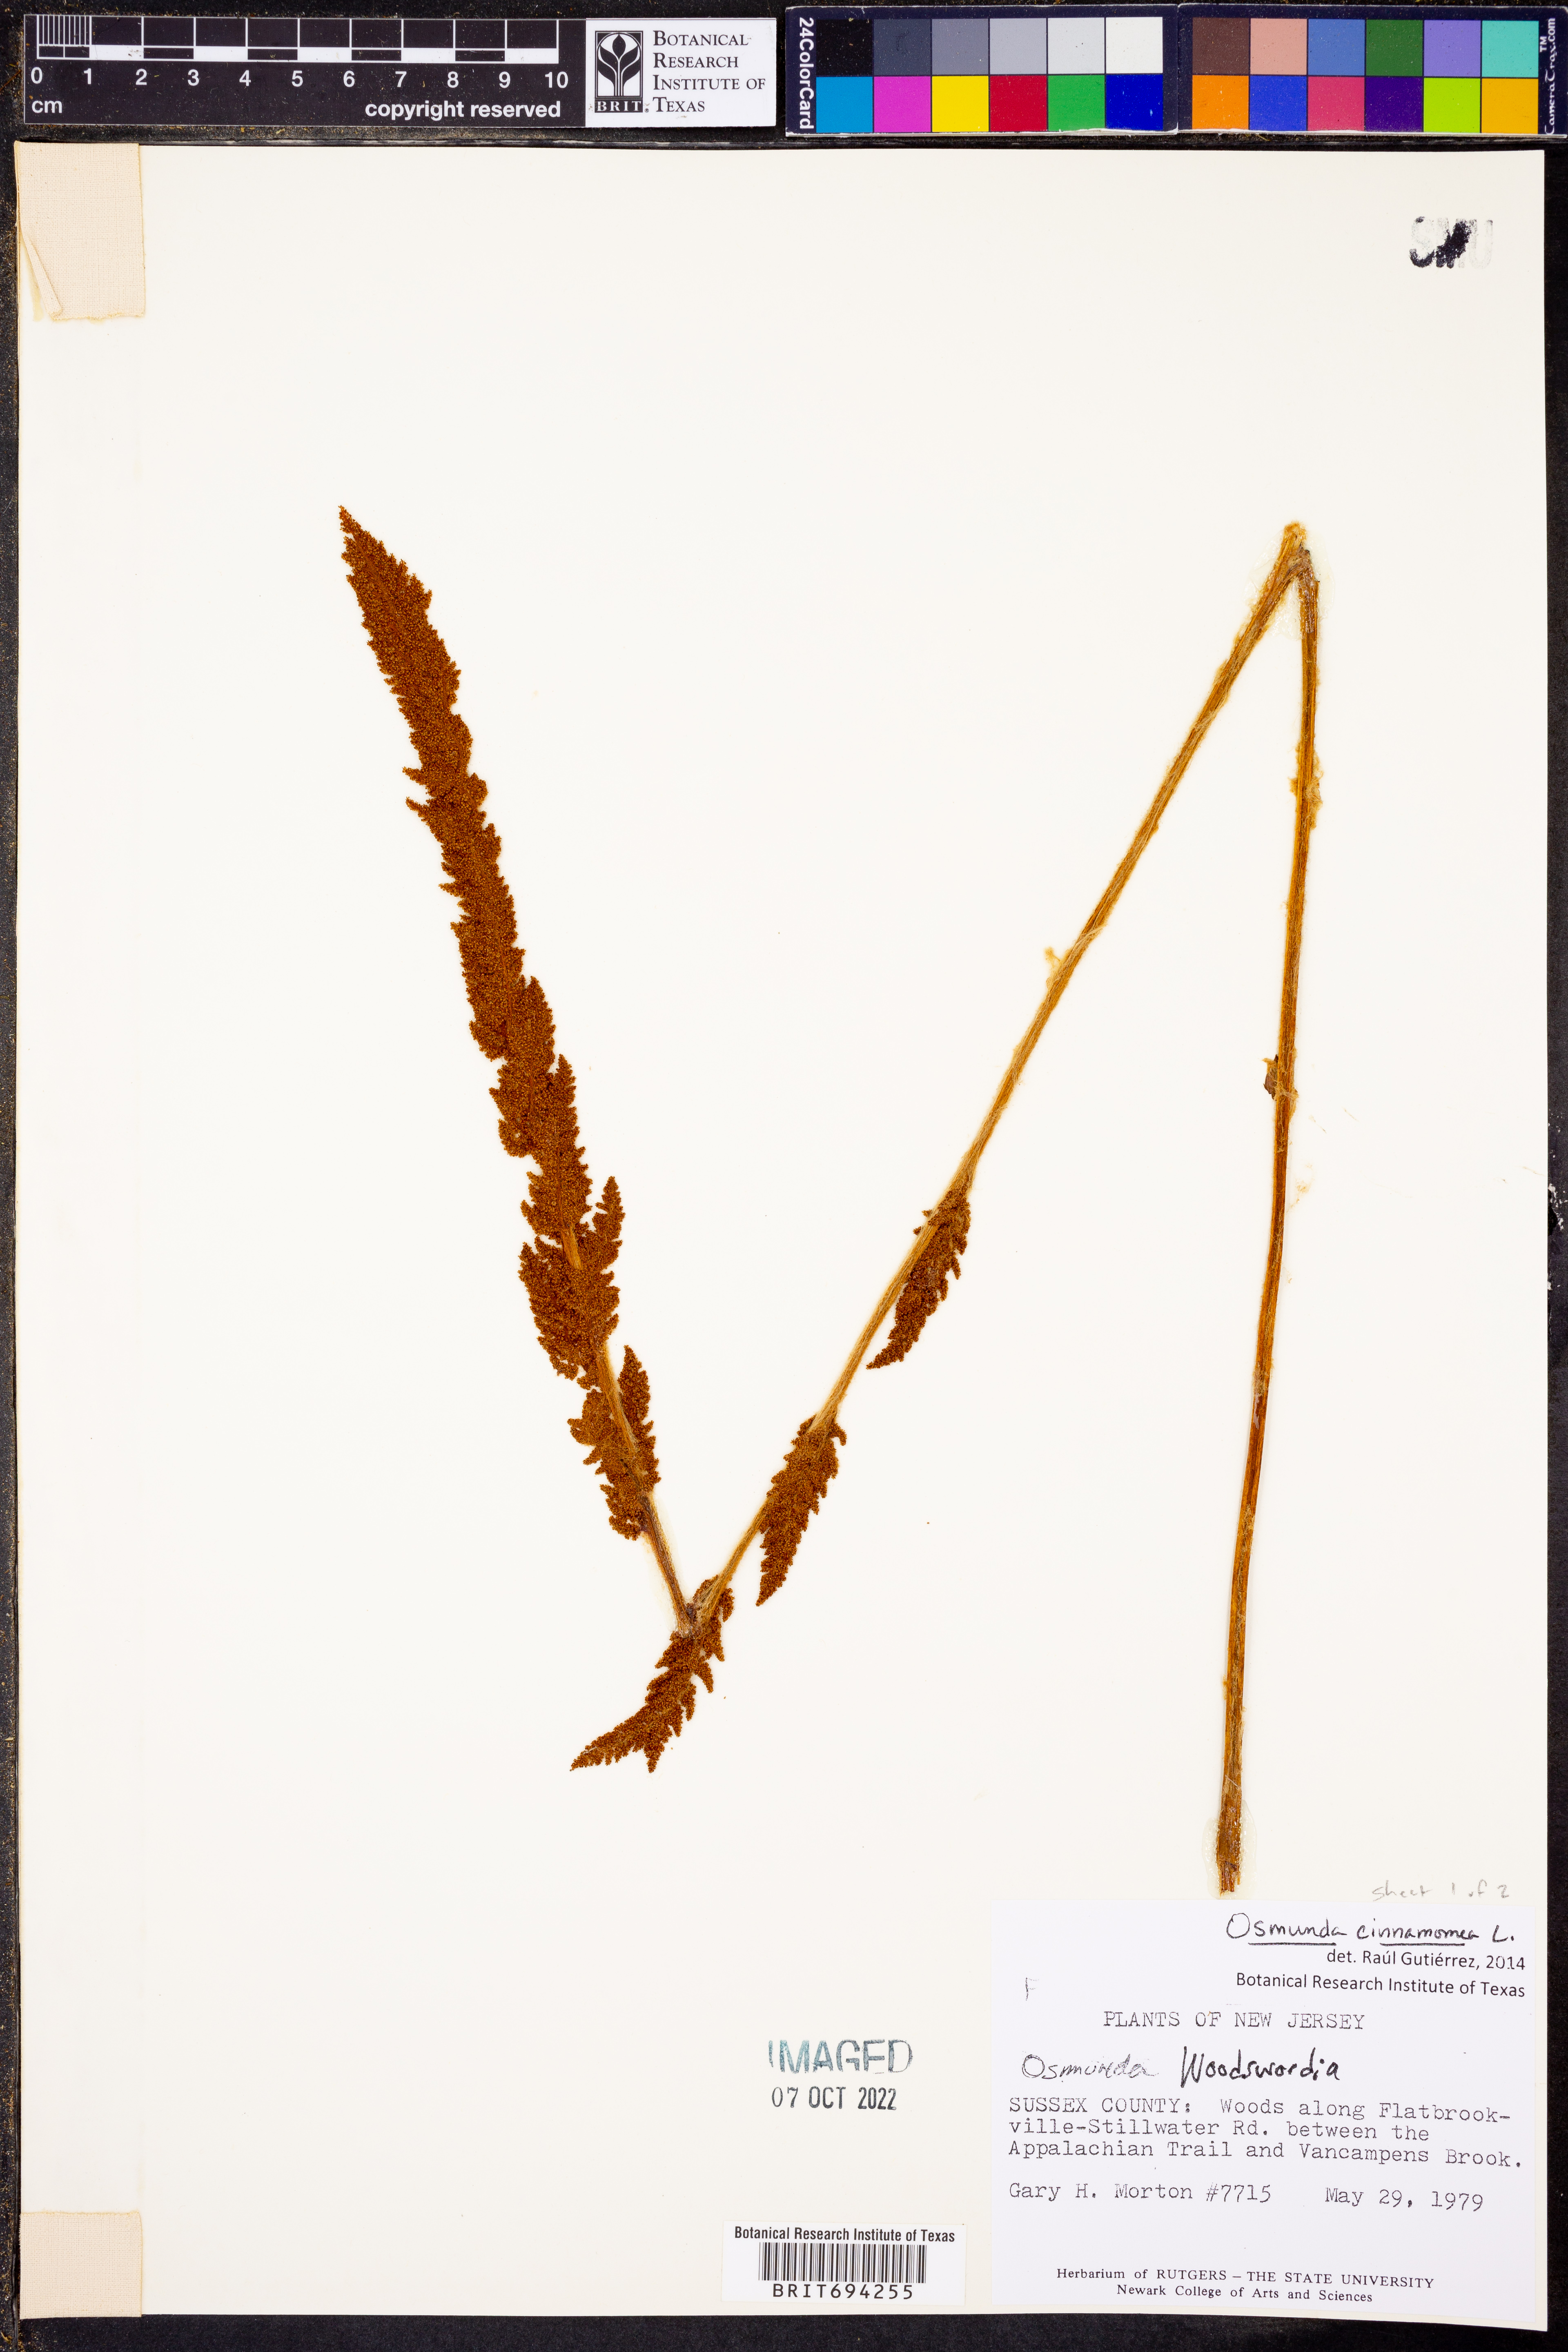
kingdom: Plantae
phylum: Tracheophyta
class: Polypodiopsida
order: Osmundales
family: Osmundaceae
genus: Osmundastrum
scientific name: Osmundastrum cinnamomeum
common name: Cinnamon fern
